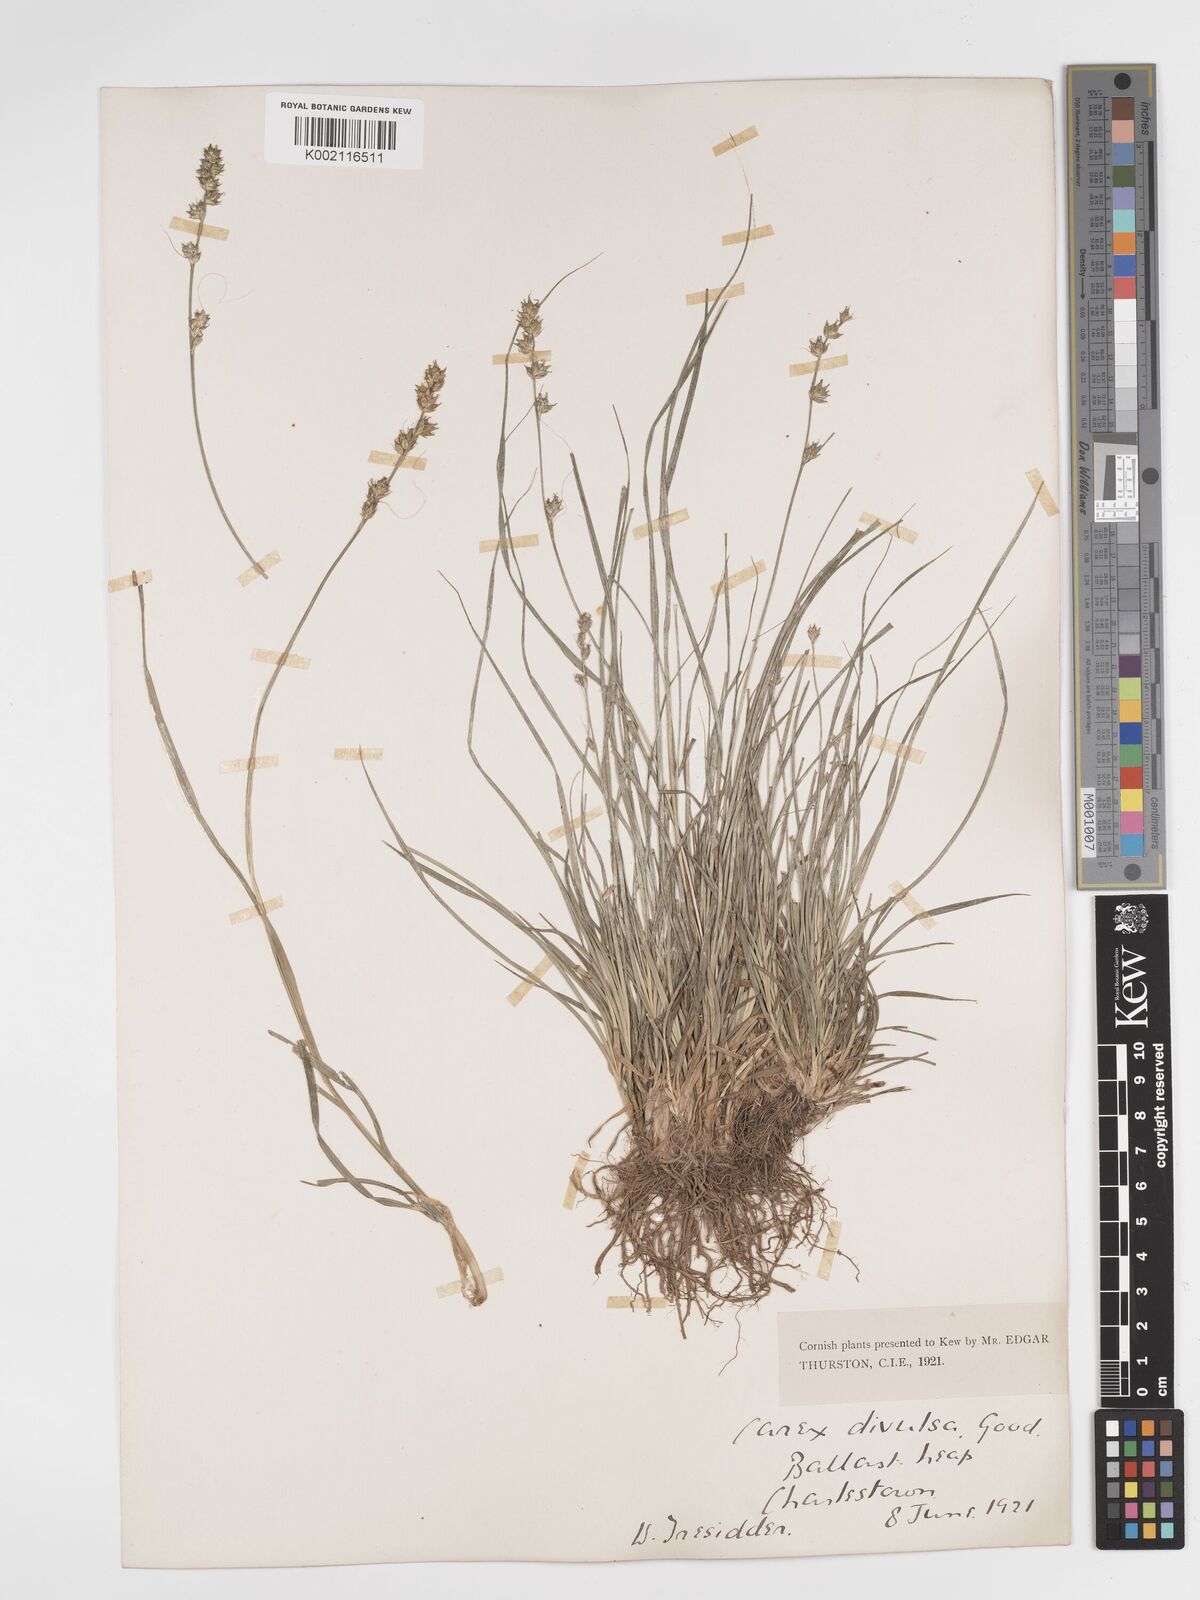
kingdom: Plantae
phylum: Tracheophyta
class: Liliopsida
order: Poales
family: Cyperaceae
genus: Carex
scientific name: Carex divulsa
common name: Grassland sedge
